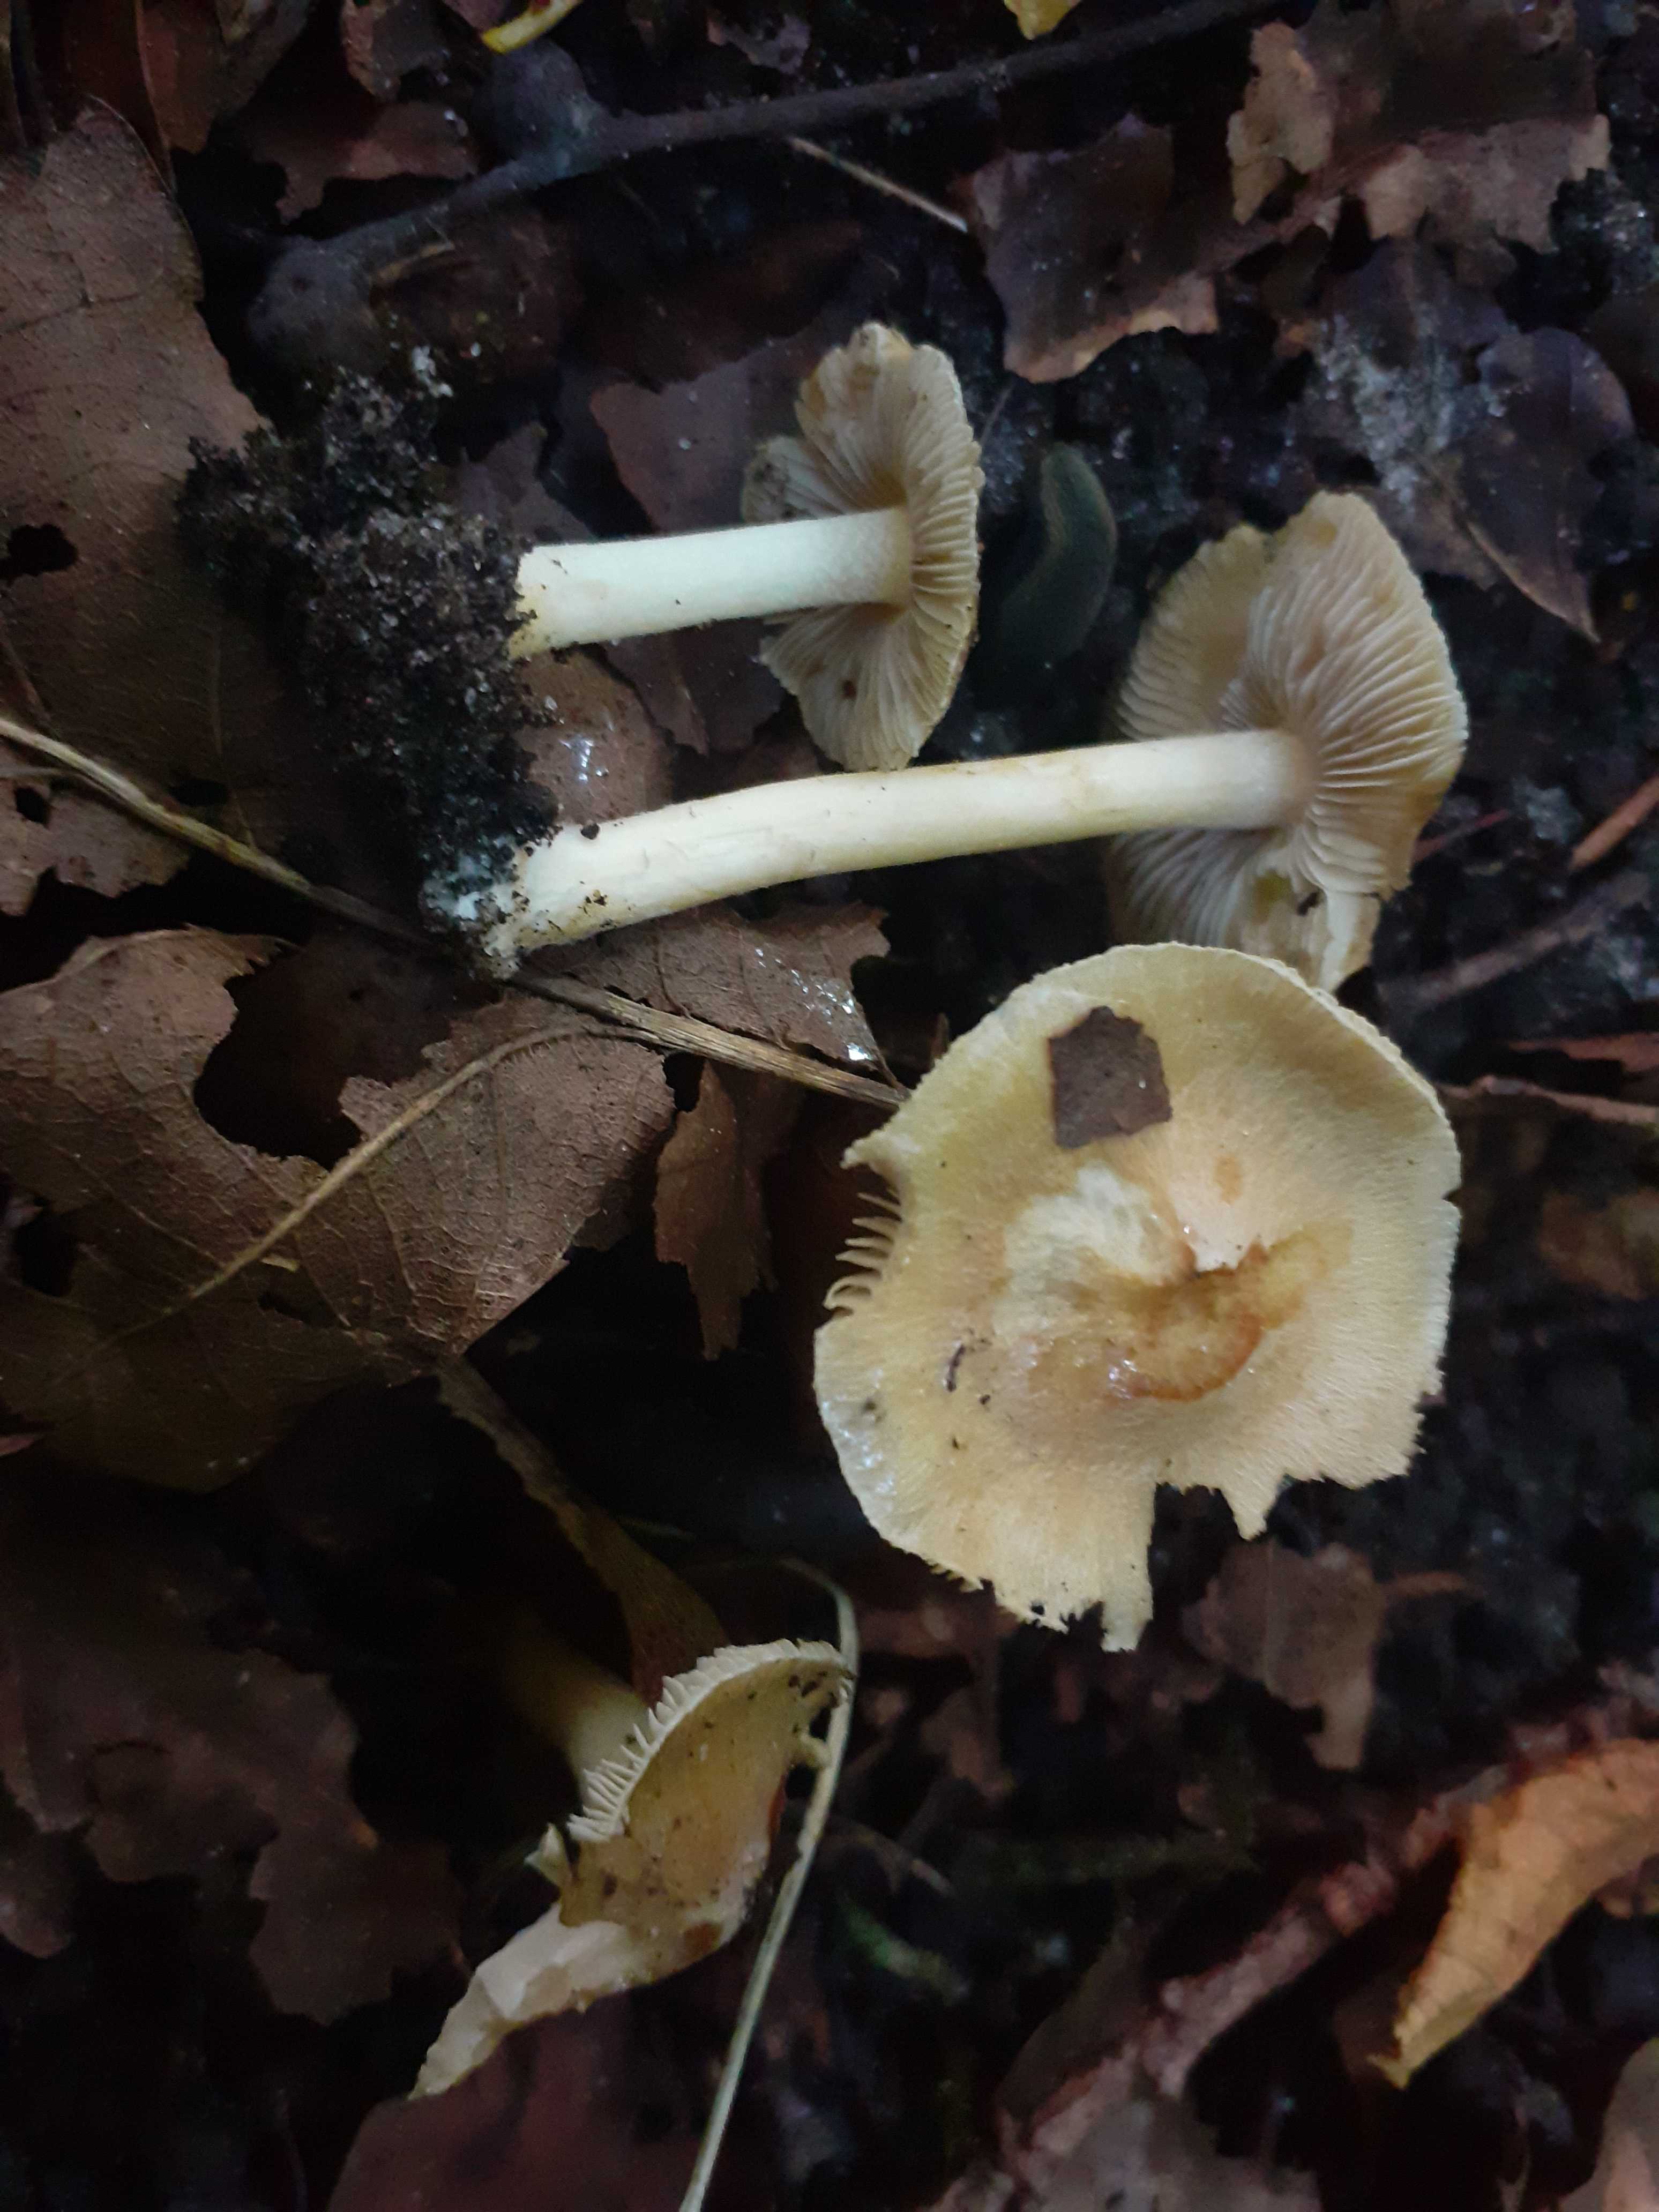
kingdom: Fungi
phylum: Basidiomycota
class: Agaricomycetes
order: Agaricales
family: Inocybaceae
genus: Inosperma
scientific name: Inosperma
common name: strågul trævlhat
